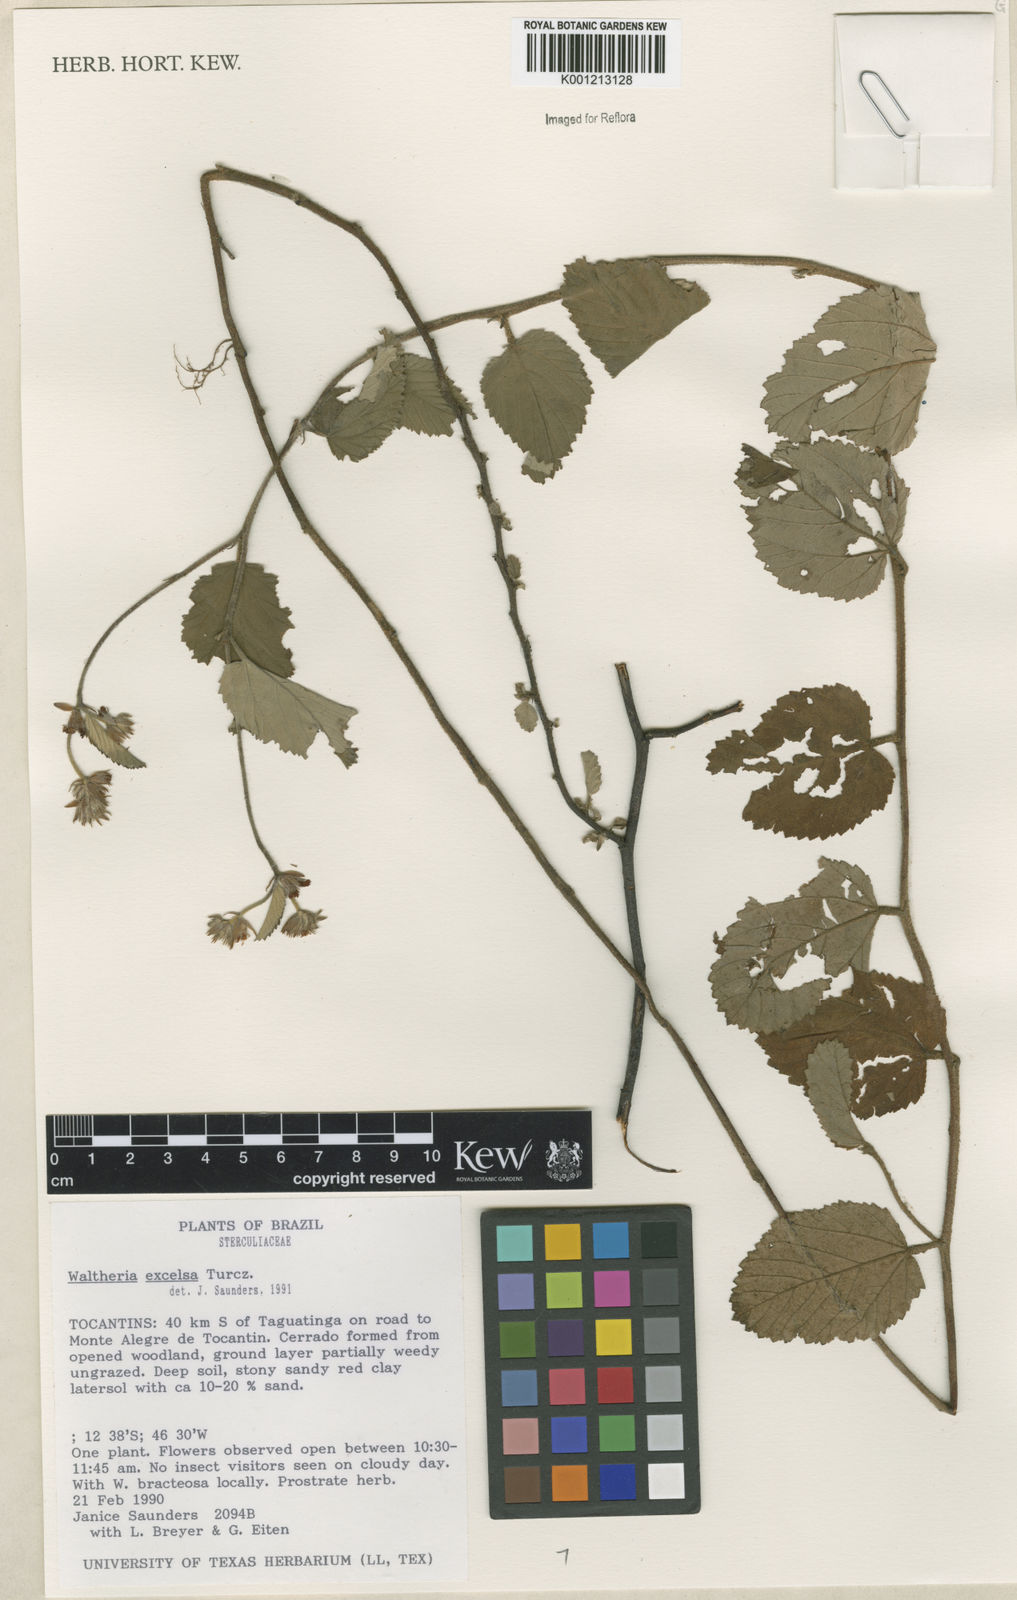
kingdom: Plantae
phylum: Tracheophyta
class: Magnoliopsida
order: Malvales
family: Malvaceae
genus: Waltheria
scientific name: Waltheria excelsa
